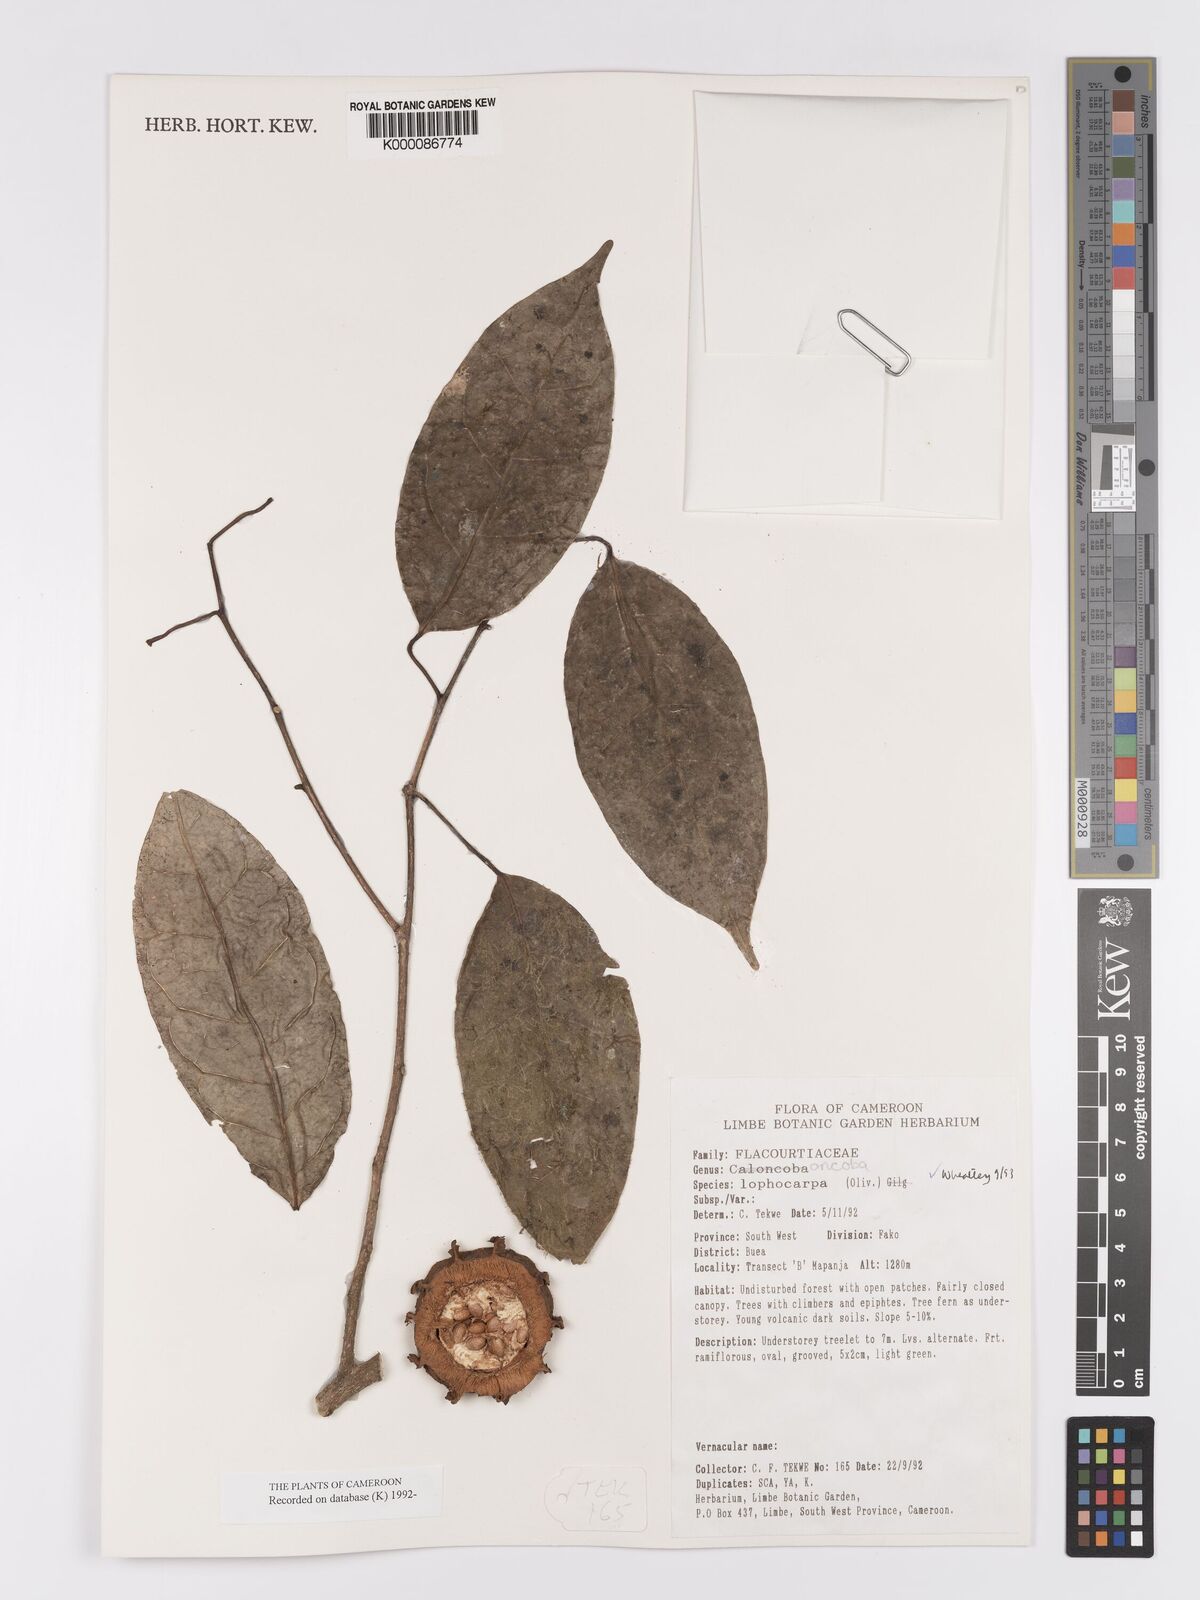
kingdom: Plantae
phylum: Tracheophyta
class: Magnoliopsida
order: Malpighiales
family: Achariaceae
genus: Caloncoba
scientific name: Caloncoba lophocarpa
